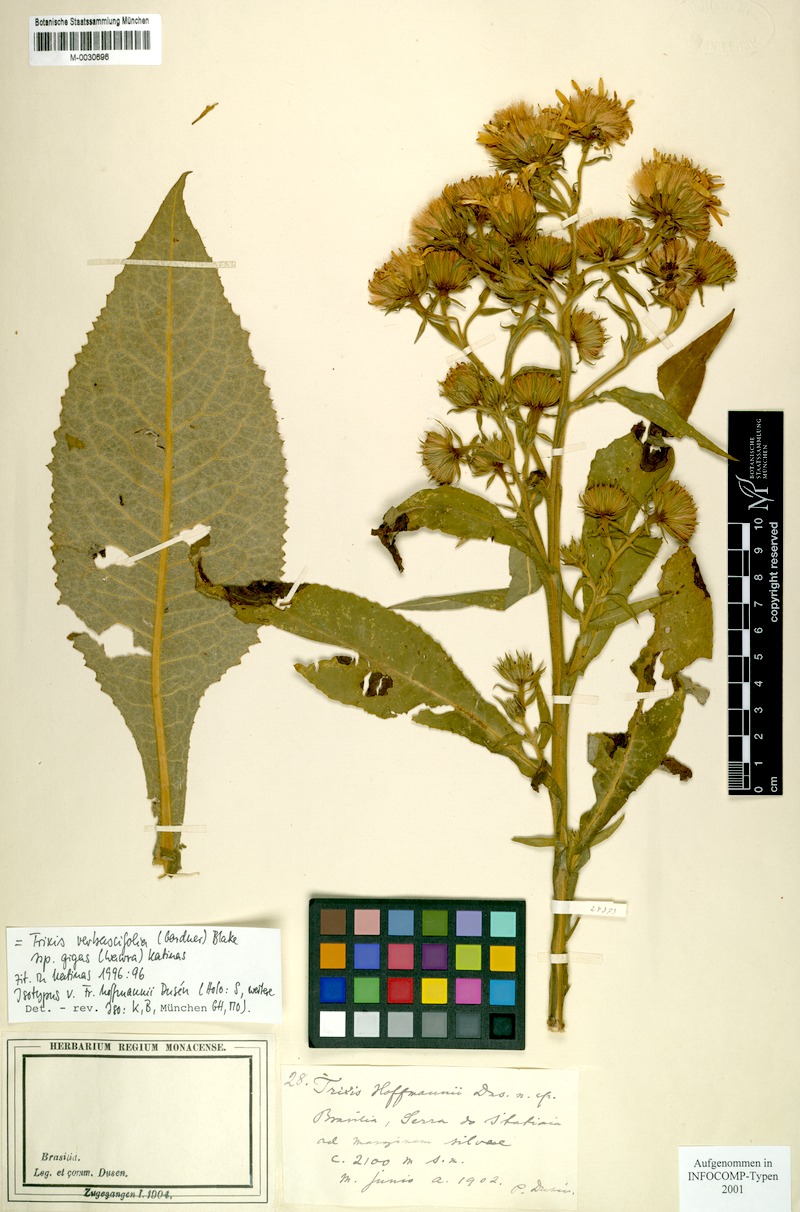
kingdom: Plantae
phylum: Tracheophyta
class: Magnoliopsida
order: Asterales
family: Asteraceae
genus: Trixis
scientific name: Trixis verbascifolia
